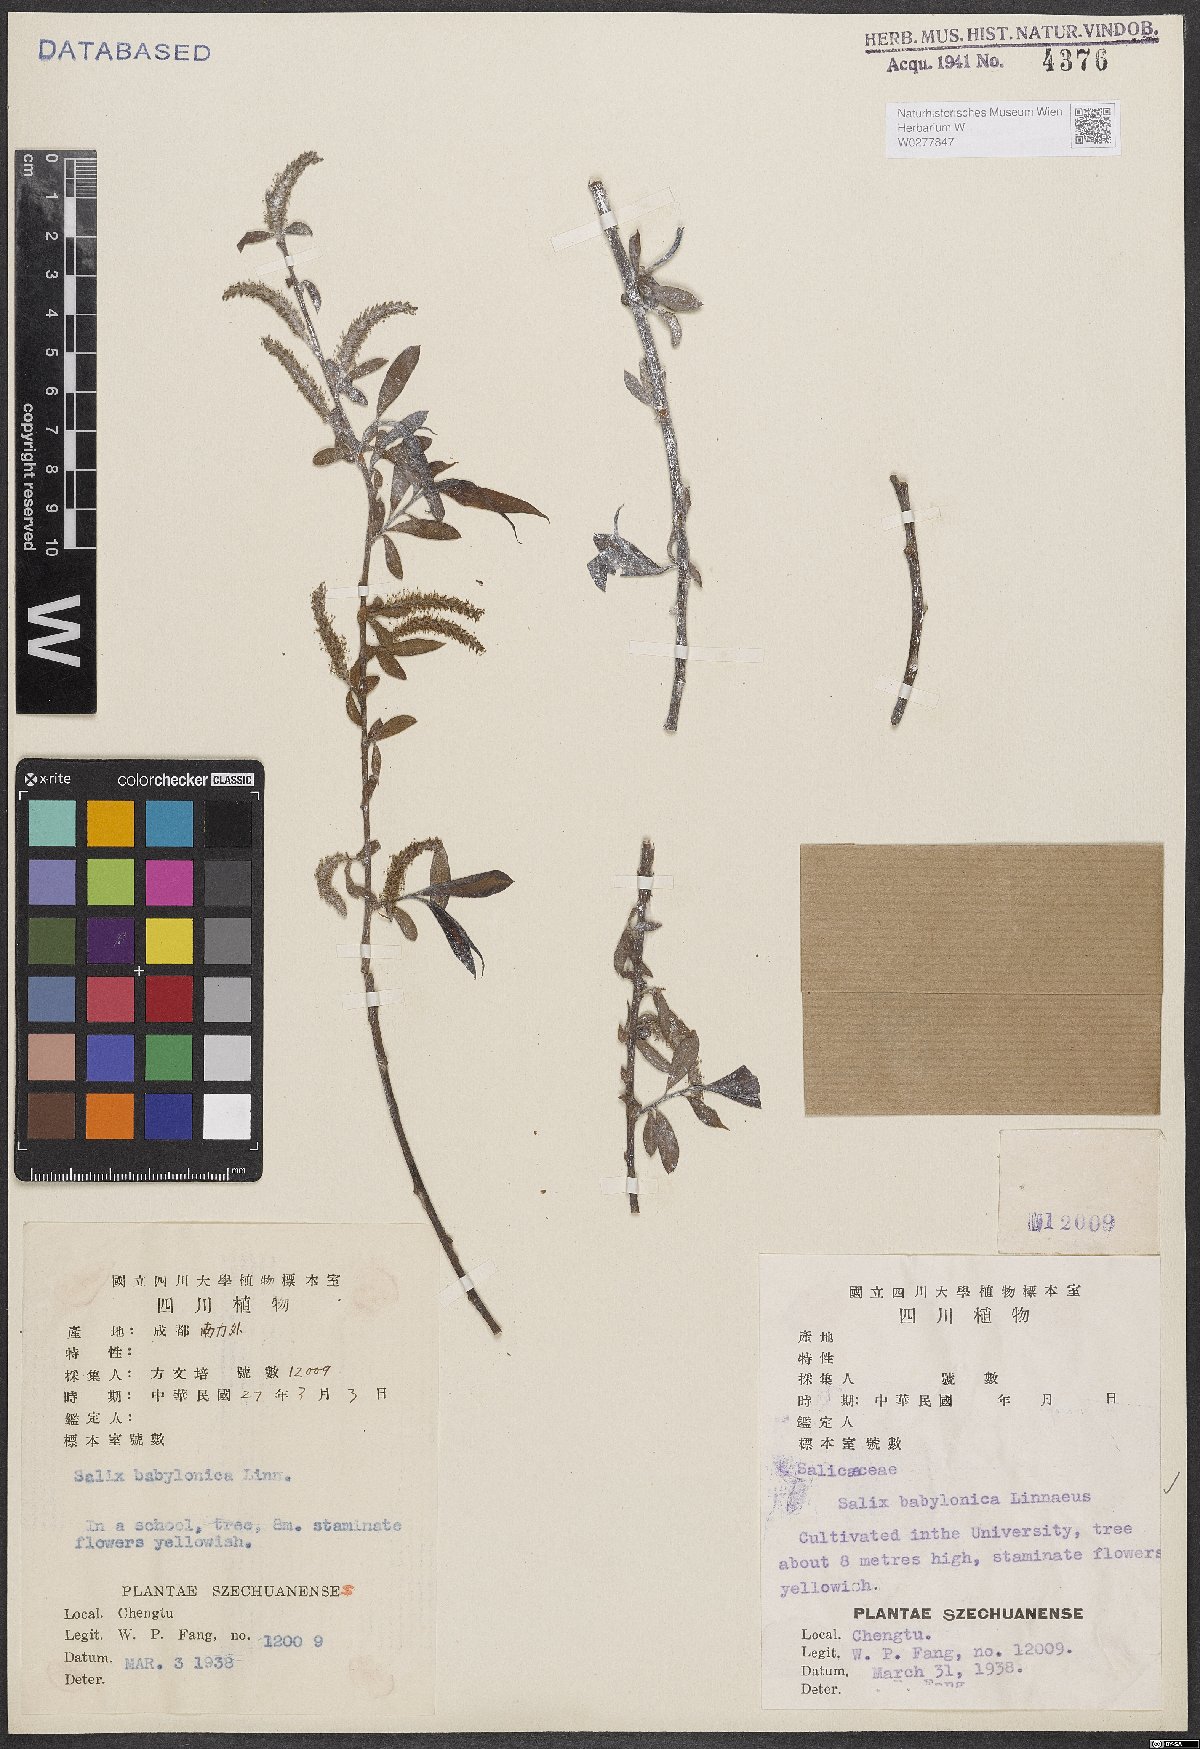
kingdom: Plantae
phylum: Tracheophyta
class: Magnoliopsida
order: Malpighiales
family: Salicaceae
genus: Salix
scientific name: Salix babylonica
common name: Weeping willow
